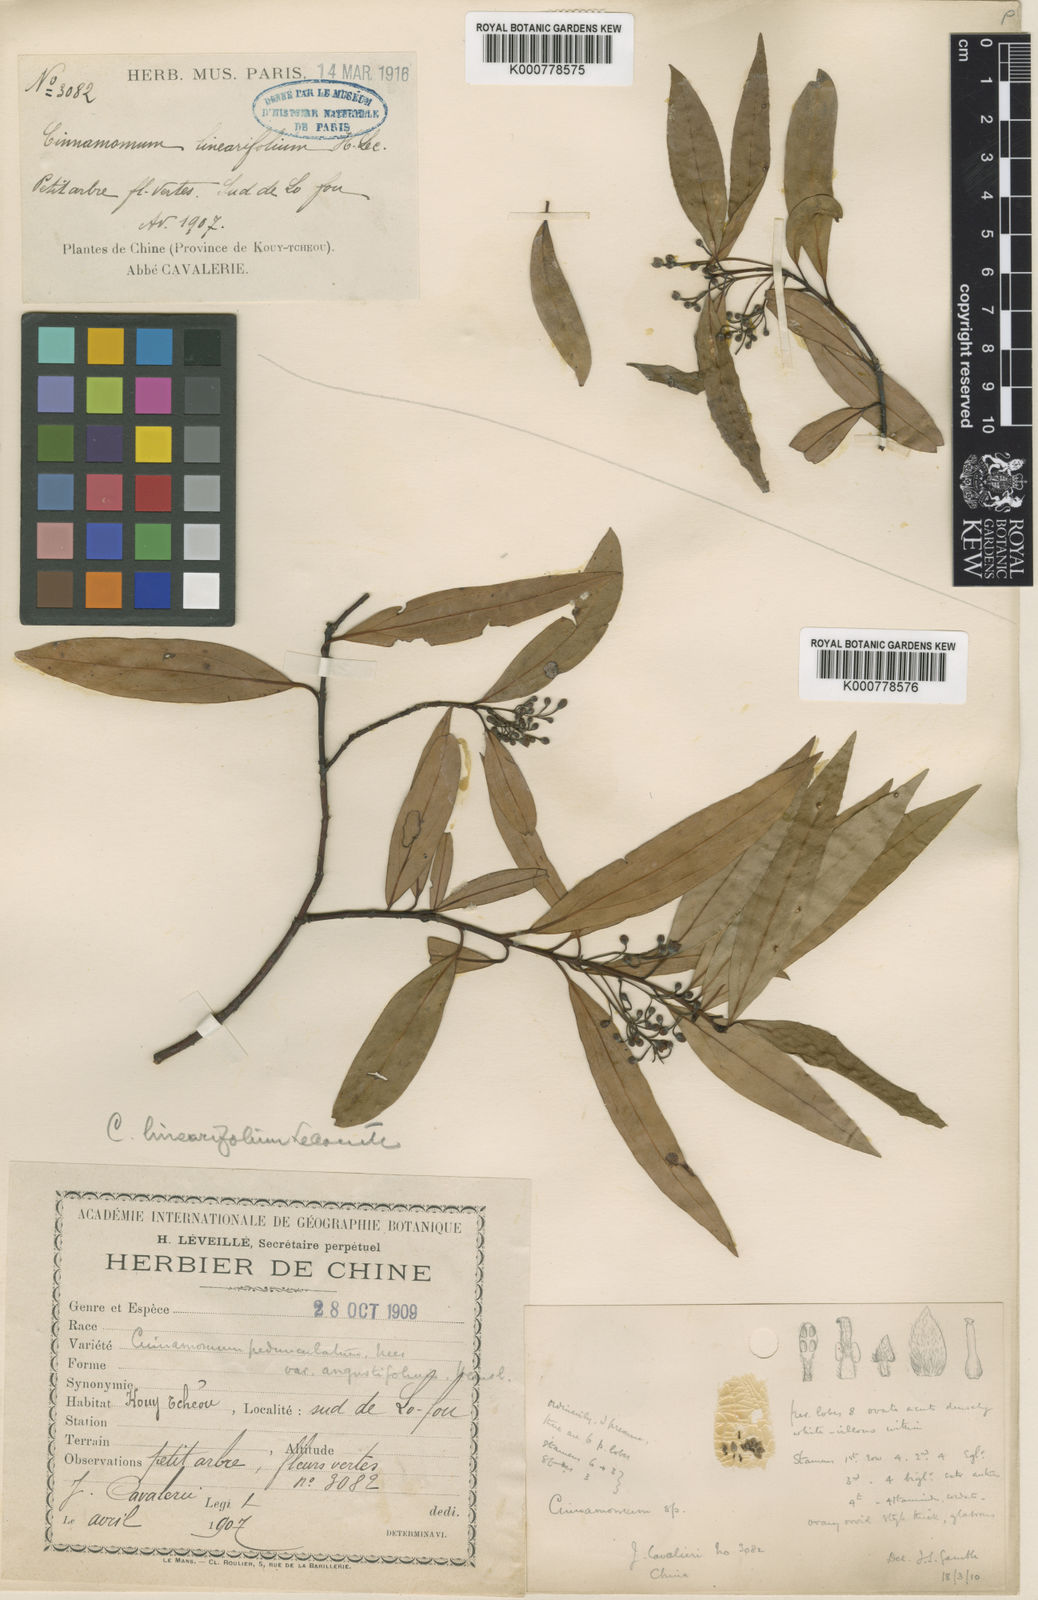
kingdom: Plantae
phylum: Tracheophyta
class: Magnoliopsida
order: Laurales
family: Lauraceae
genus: Cinnamomum
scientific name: Cinnamomum heyneanum
